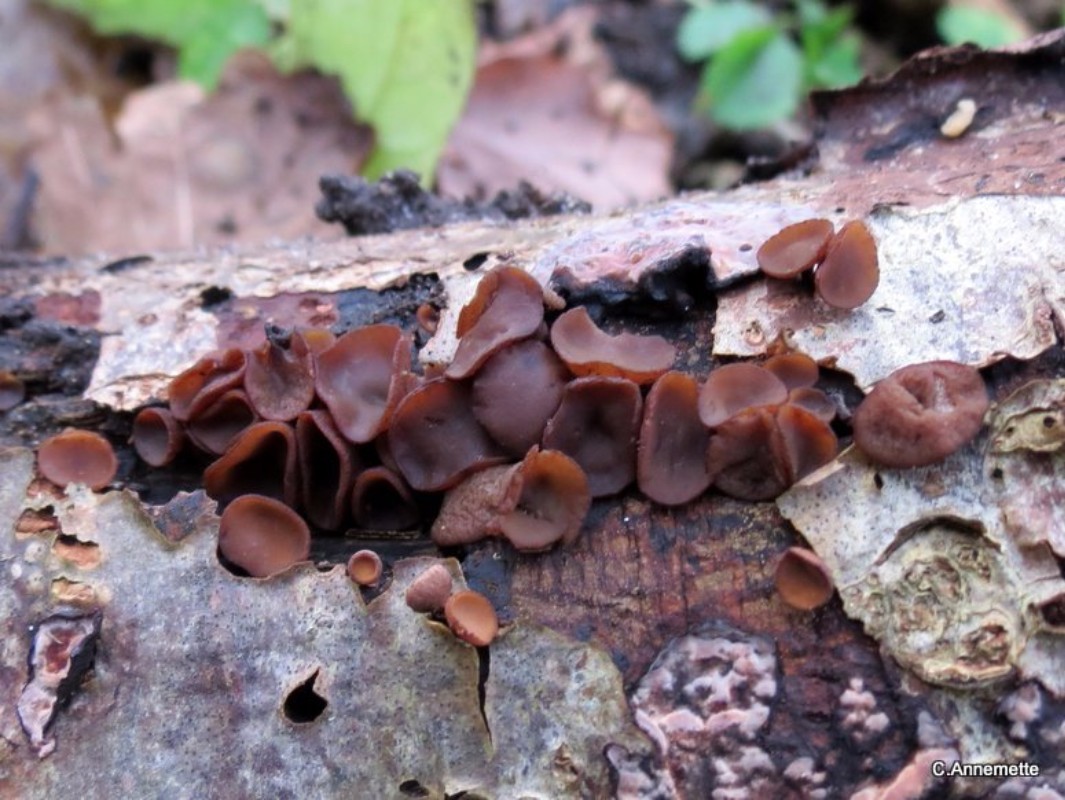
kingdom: Fungi
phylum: Ascomycota
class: Leotiomycetes
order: Helotiales
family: Rutstroemiaceae
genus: Rutstroemia
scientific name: Rutstroemia firma
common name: gren-brunskive
